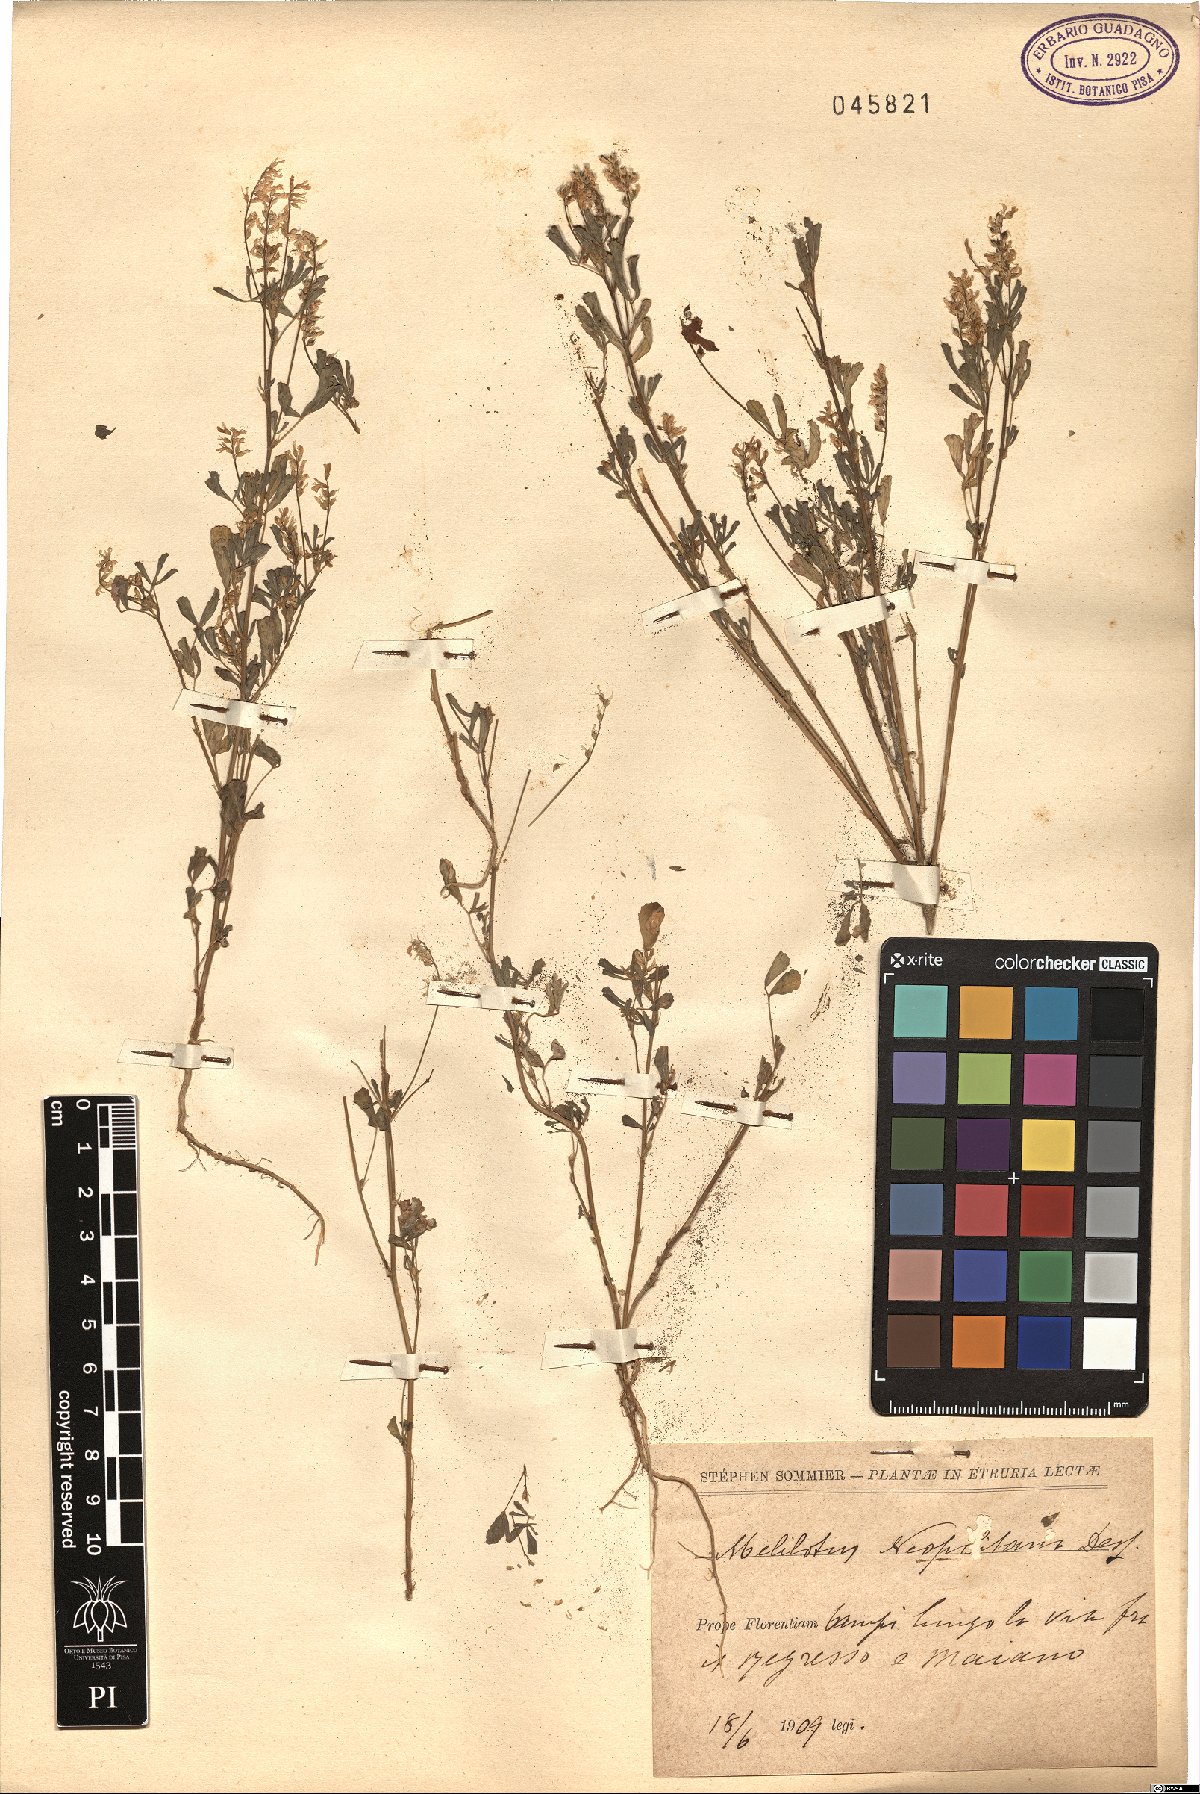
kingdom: Plantae
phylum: Tracheophyta
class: Magnoliopsida
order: Fabales
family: Fabaceae
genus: Melilotus
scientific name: Melilotus neapolitanus
